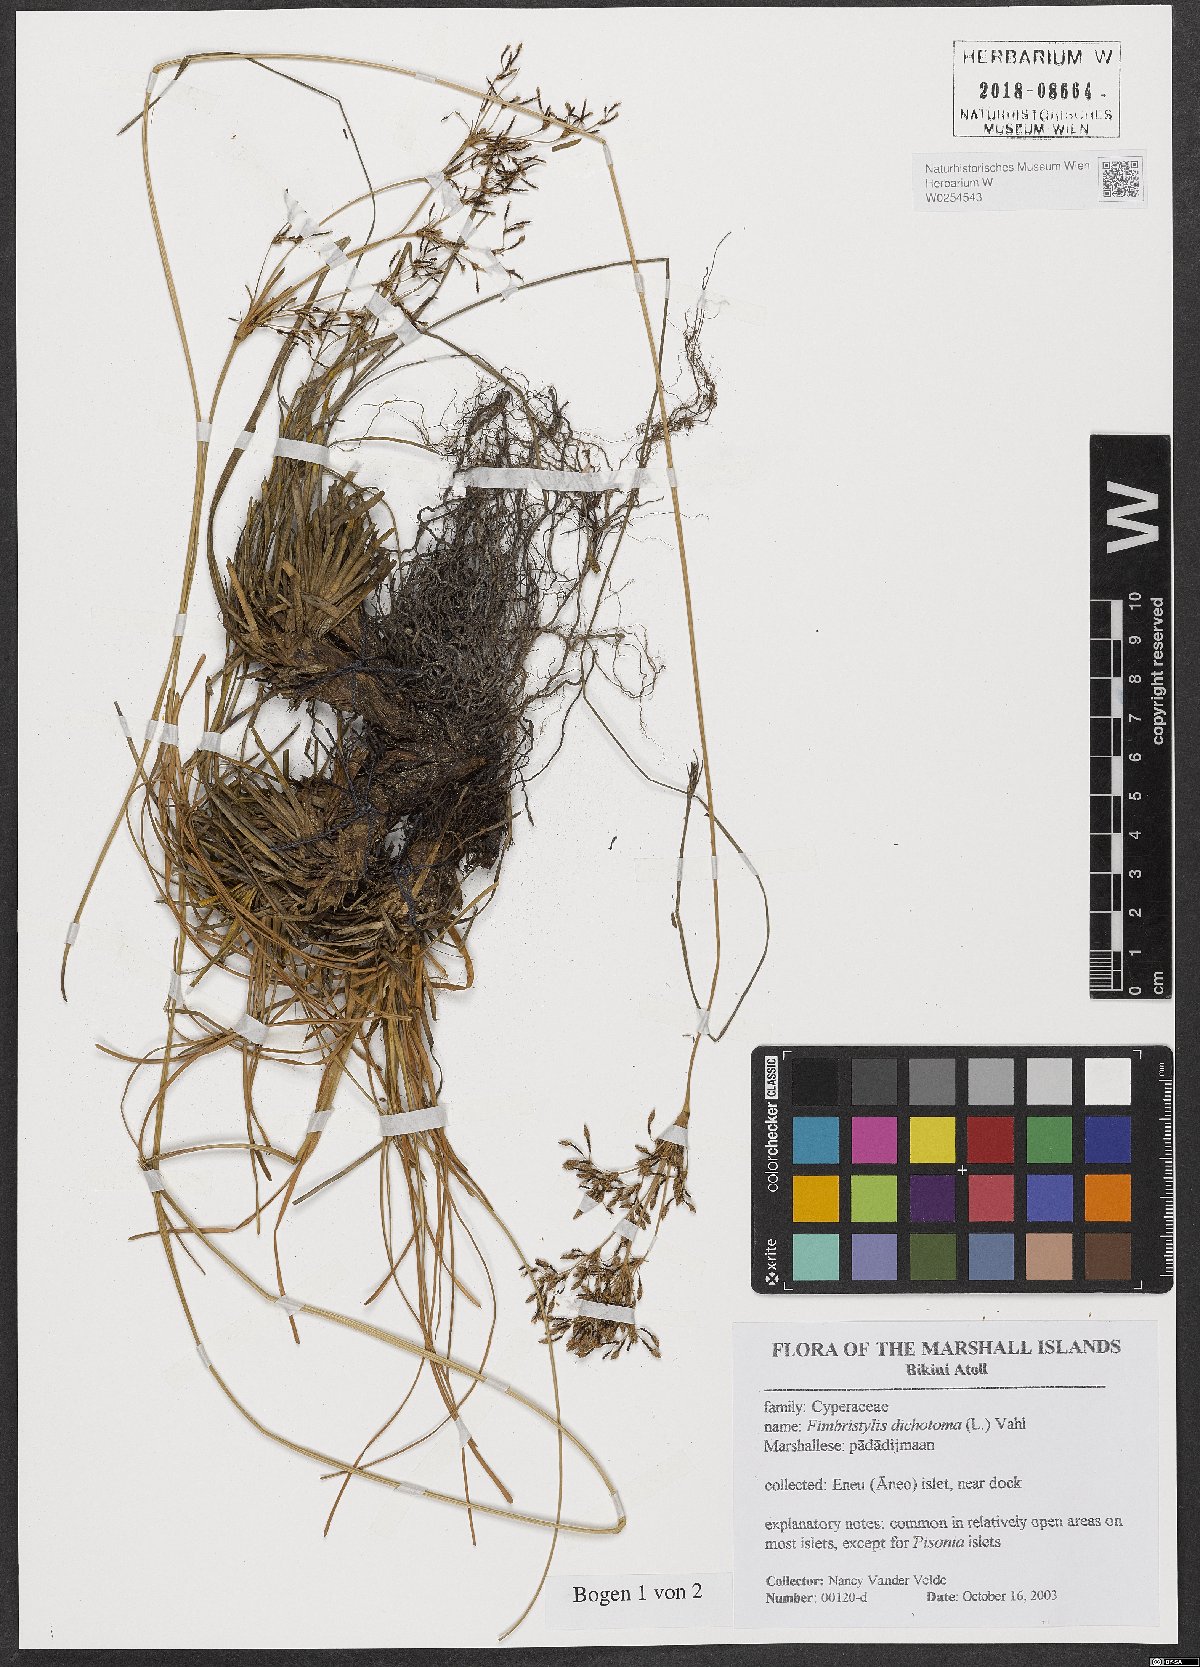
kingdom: Plantae
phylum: Tracheophyta
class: Liliopsida
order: Poales
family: Cyperaceae
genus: Fimbristylis
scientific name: Fimbristylis dichotoma
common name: Forked fimbry
